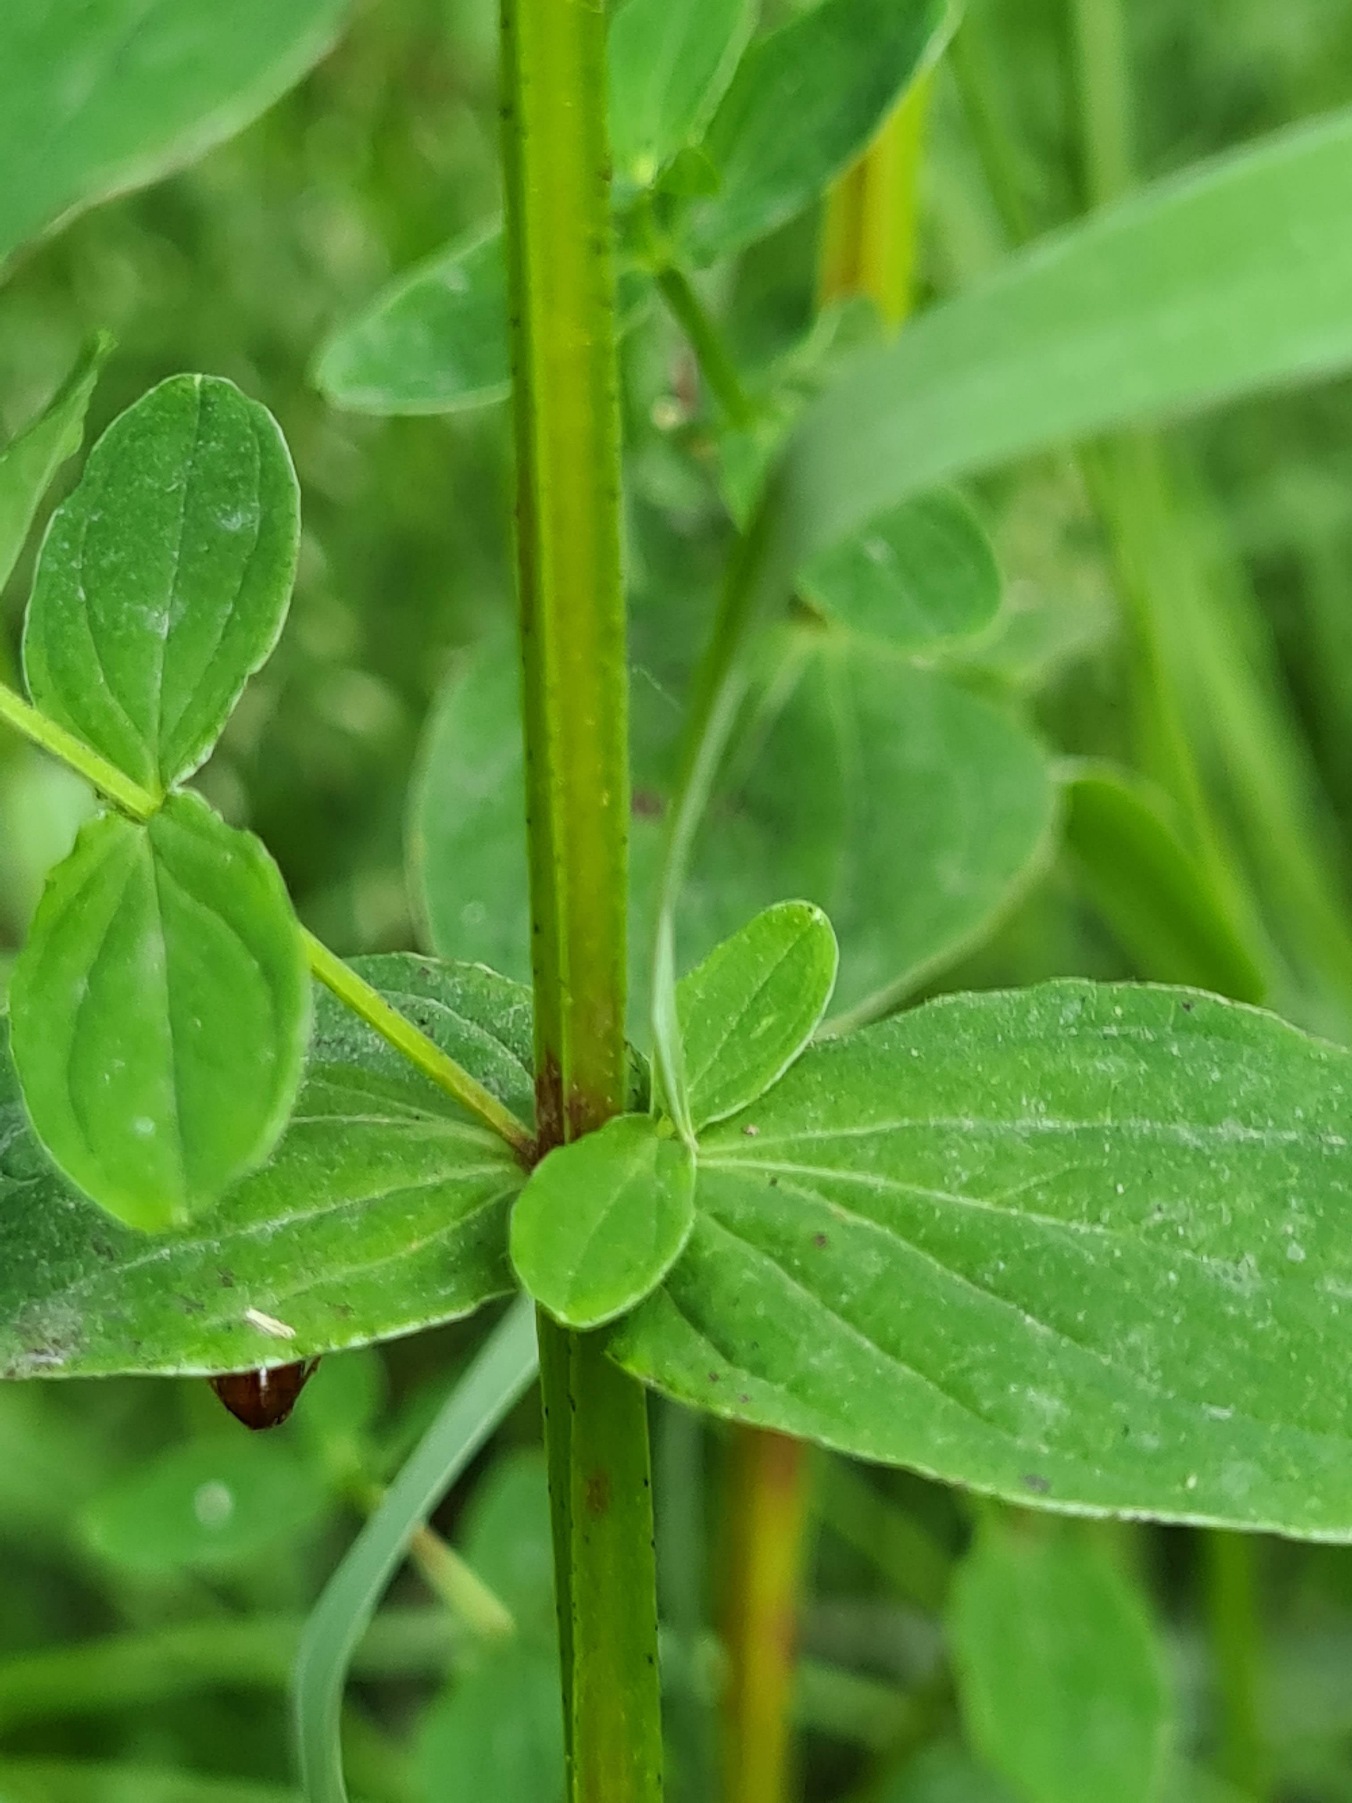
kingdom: Plantae
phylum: Tracheophyta
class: Magnoliopsida
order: Malpighiales
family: Hypericaceae
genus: Hypericum
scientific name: Hypericum tetrapterum
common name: Vinget perikon
